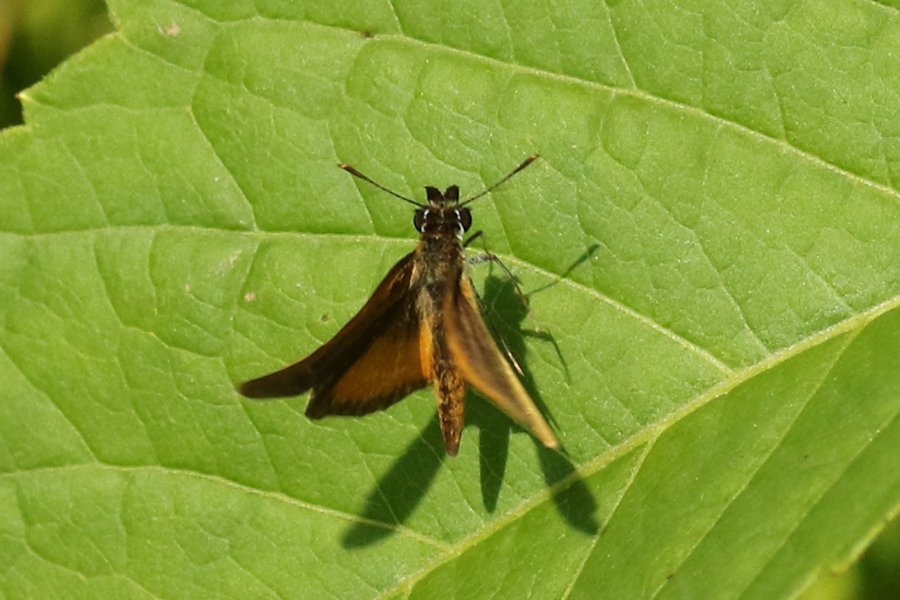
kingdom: Animalia
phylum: Arthropoda
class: Insecta
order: Lepidoptera
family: Hesperiidae
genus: Ancyloxypha
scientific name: Ancyloxypha numitor
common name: Least Skipper
